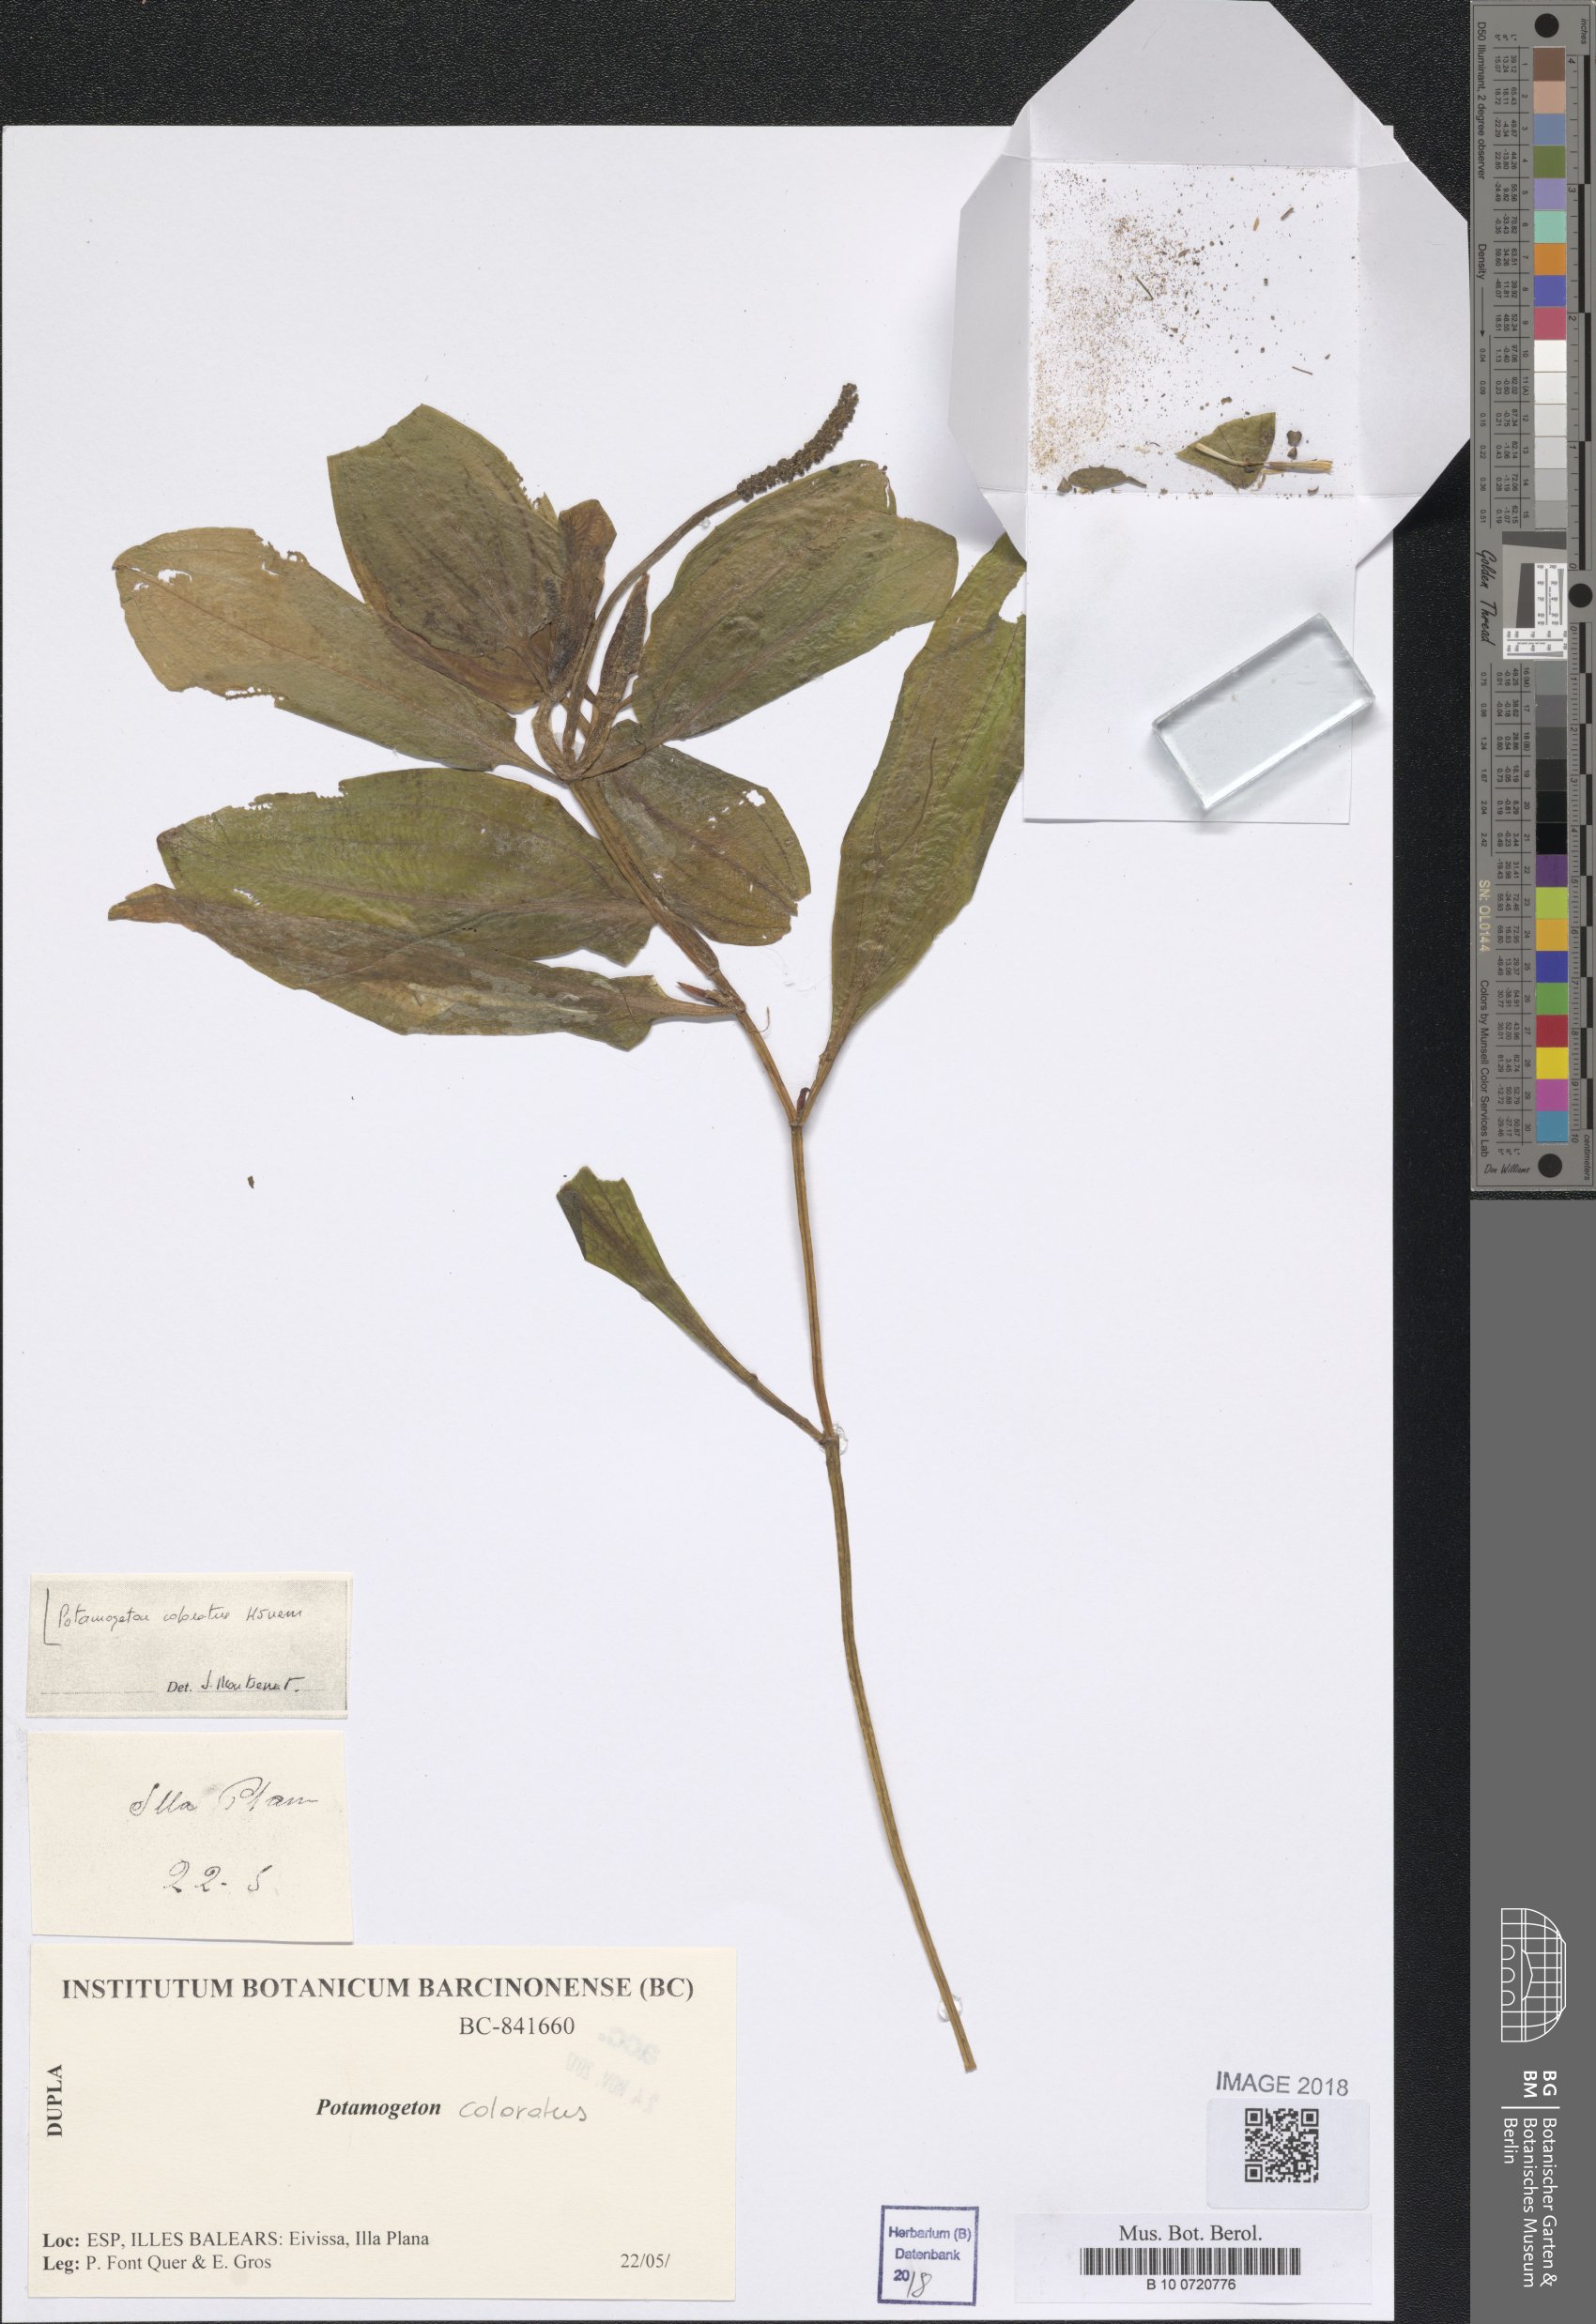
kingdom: Plantae
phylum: Tracheophyta
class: Liliopsida
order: Alismatales
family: Potamogetonaceae
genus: Potamogeton
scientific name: Potamogeton coloratus
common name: Fen pondweed
